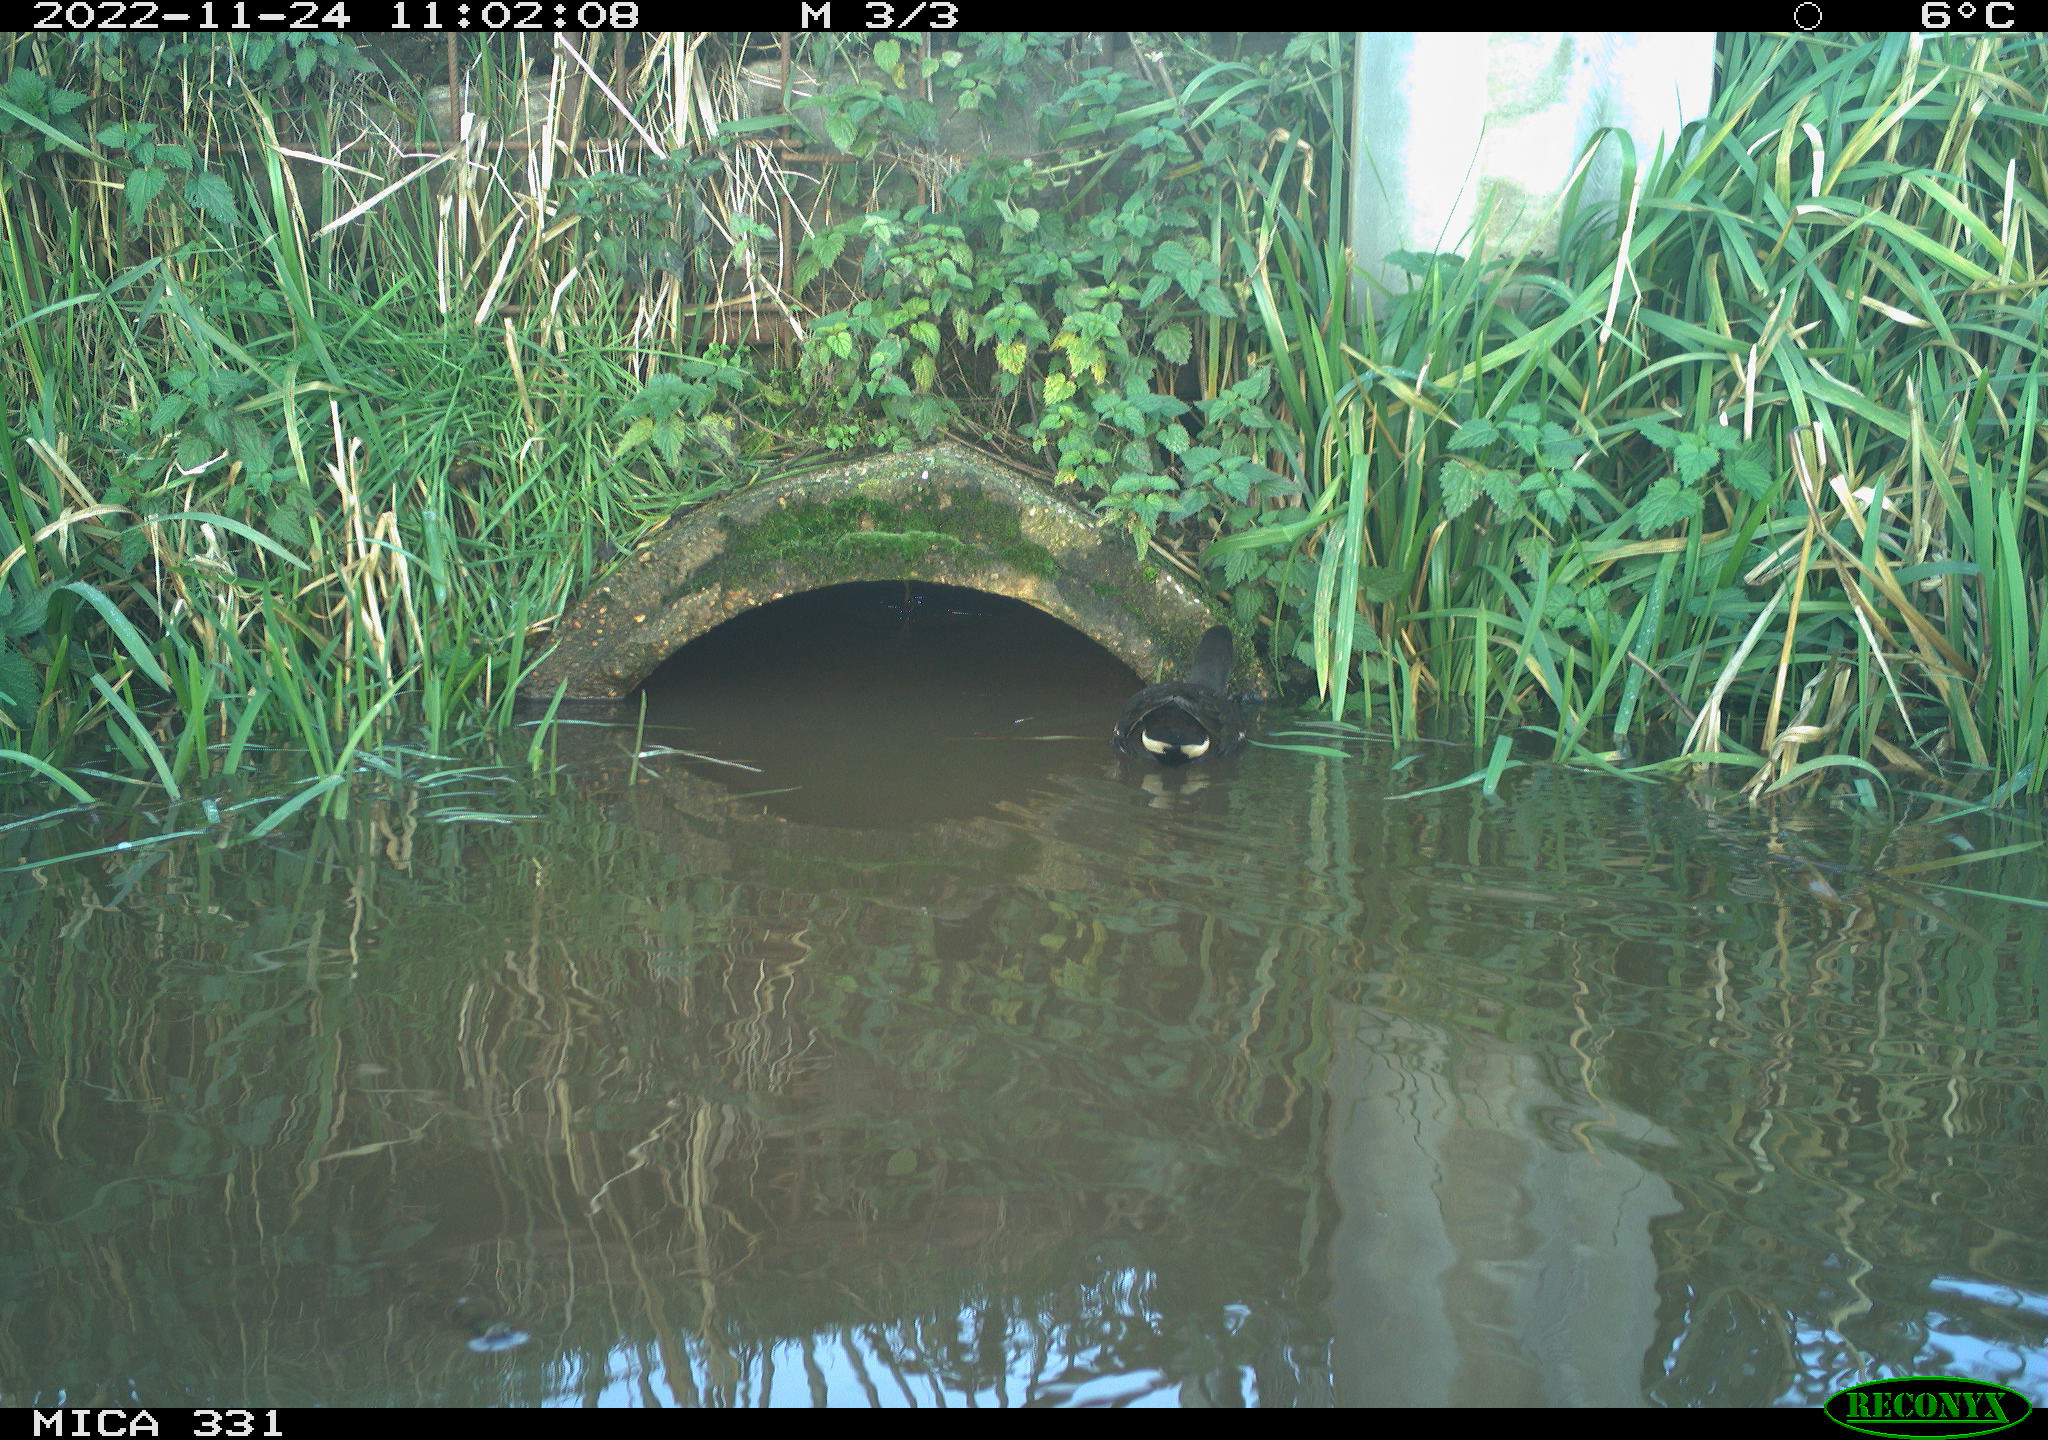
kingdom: Animalia
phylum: Chordata
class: Aves
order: Gruiformes
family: Rallidae
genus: Gallinula
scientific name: Gallinula chloropus
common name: Common moorhen
